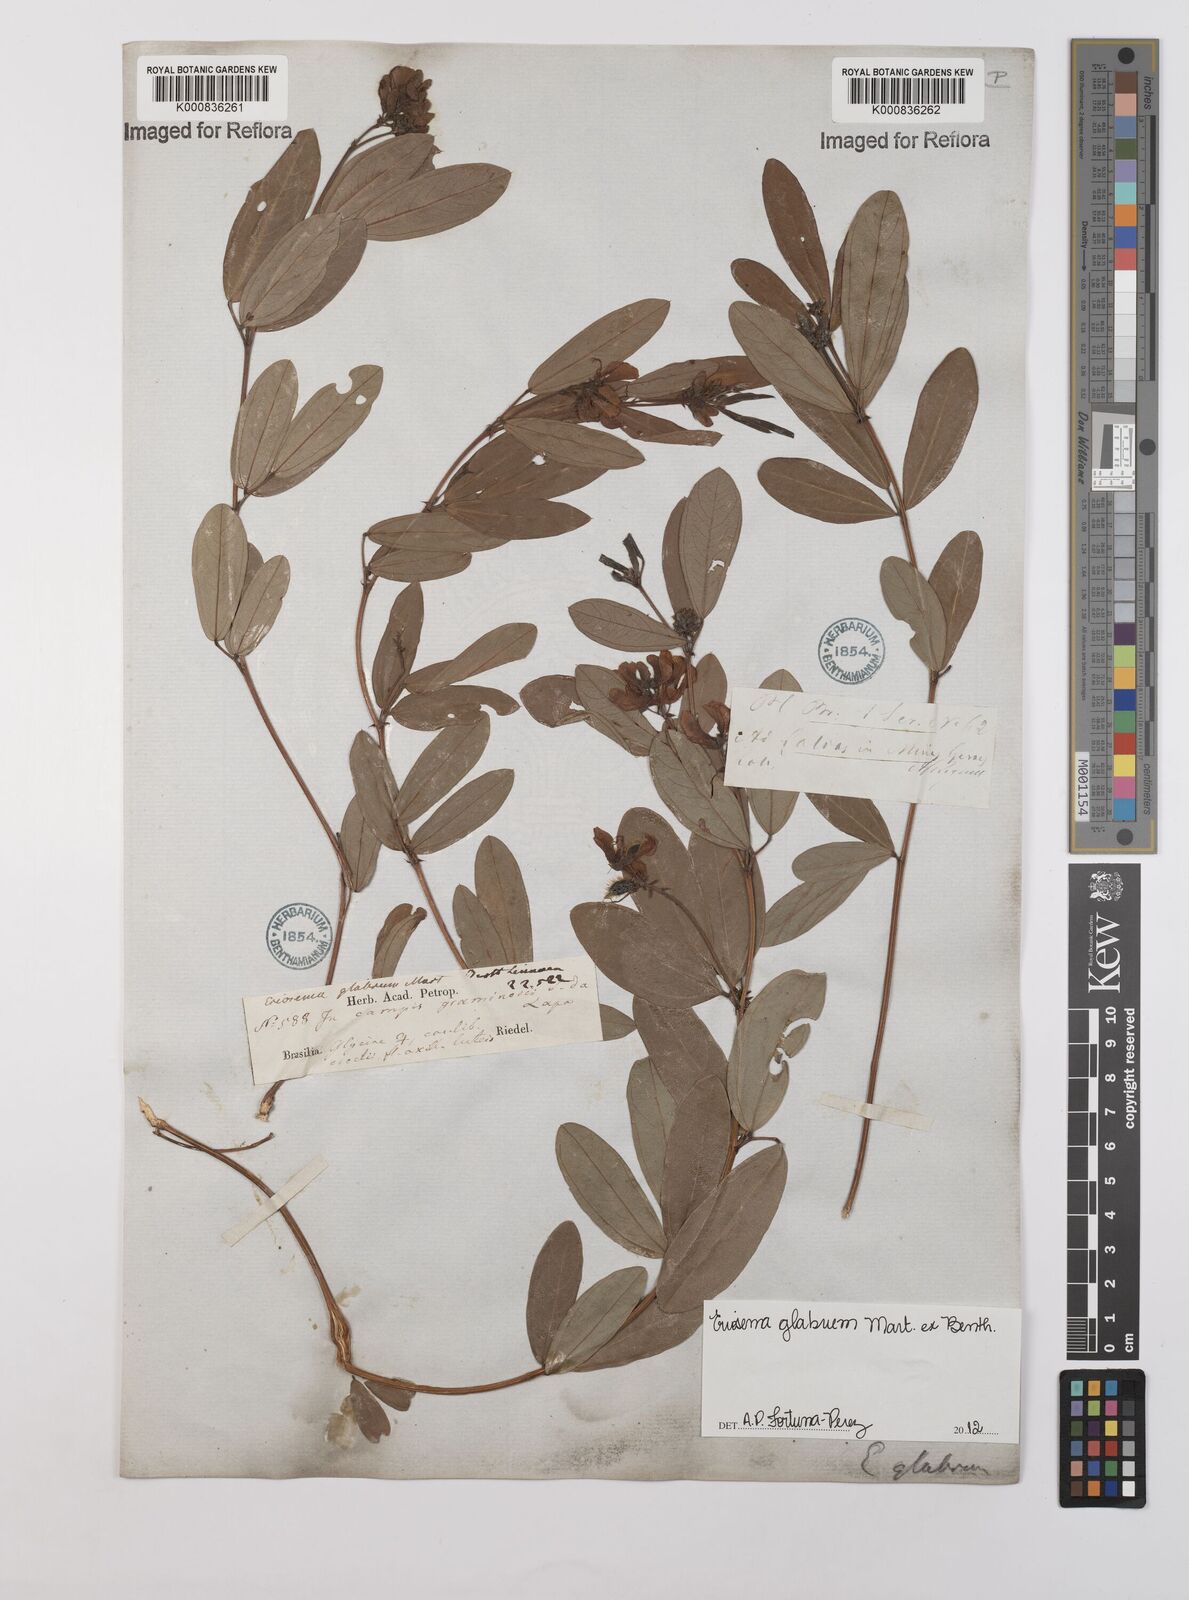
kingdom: Plantae
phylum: Tracheophyta
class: Magnoliopsida
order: Fabales
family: Fabaceae
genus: Eriosema
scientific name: Eriosema glabrum
